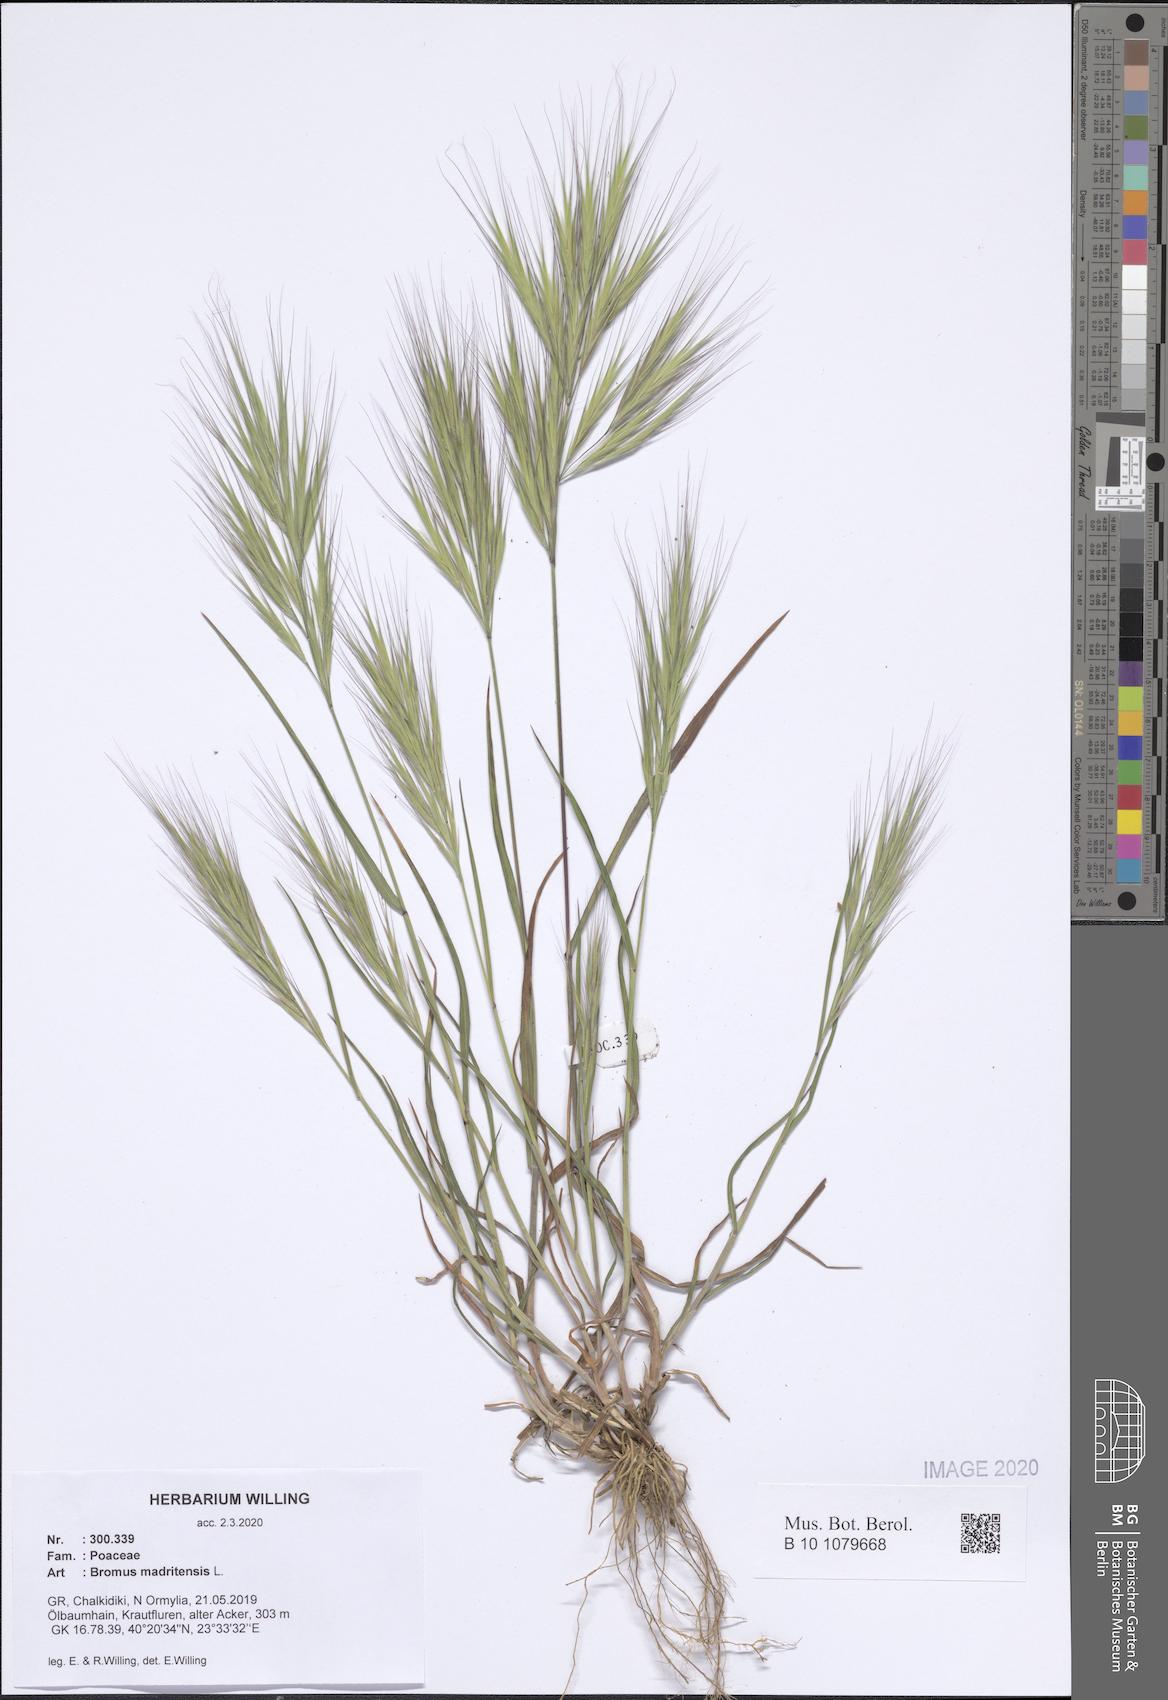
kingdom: Plantae
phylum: Tracheophyta
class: Liliopsida
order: Poales
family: Poaceae
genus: Bromus
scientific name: Bromus madritensis
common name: Compact brome
